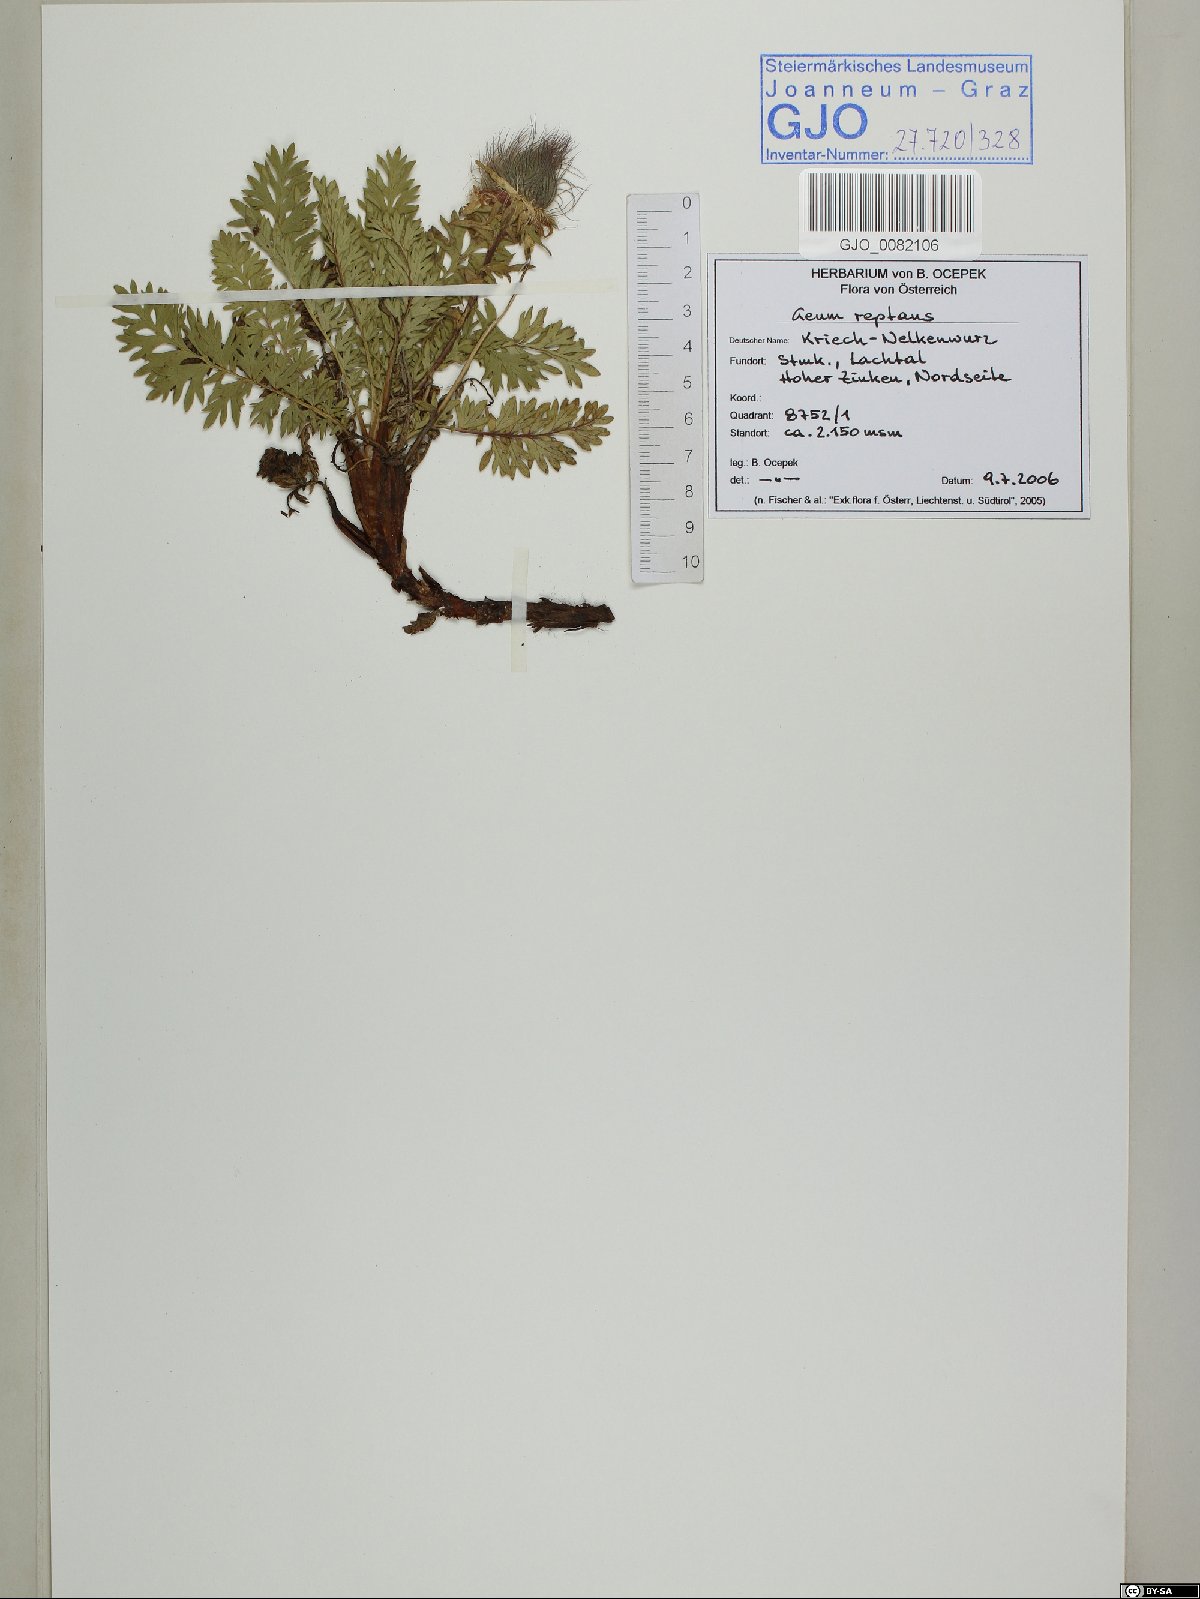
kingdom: Plantae
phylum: Tracheophyta
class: Magnoliopsida
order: Rosales
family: Rosaceae
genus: Geum
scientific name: Geum reptans
